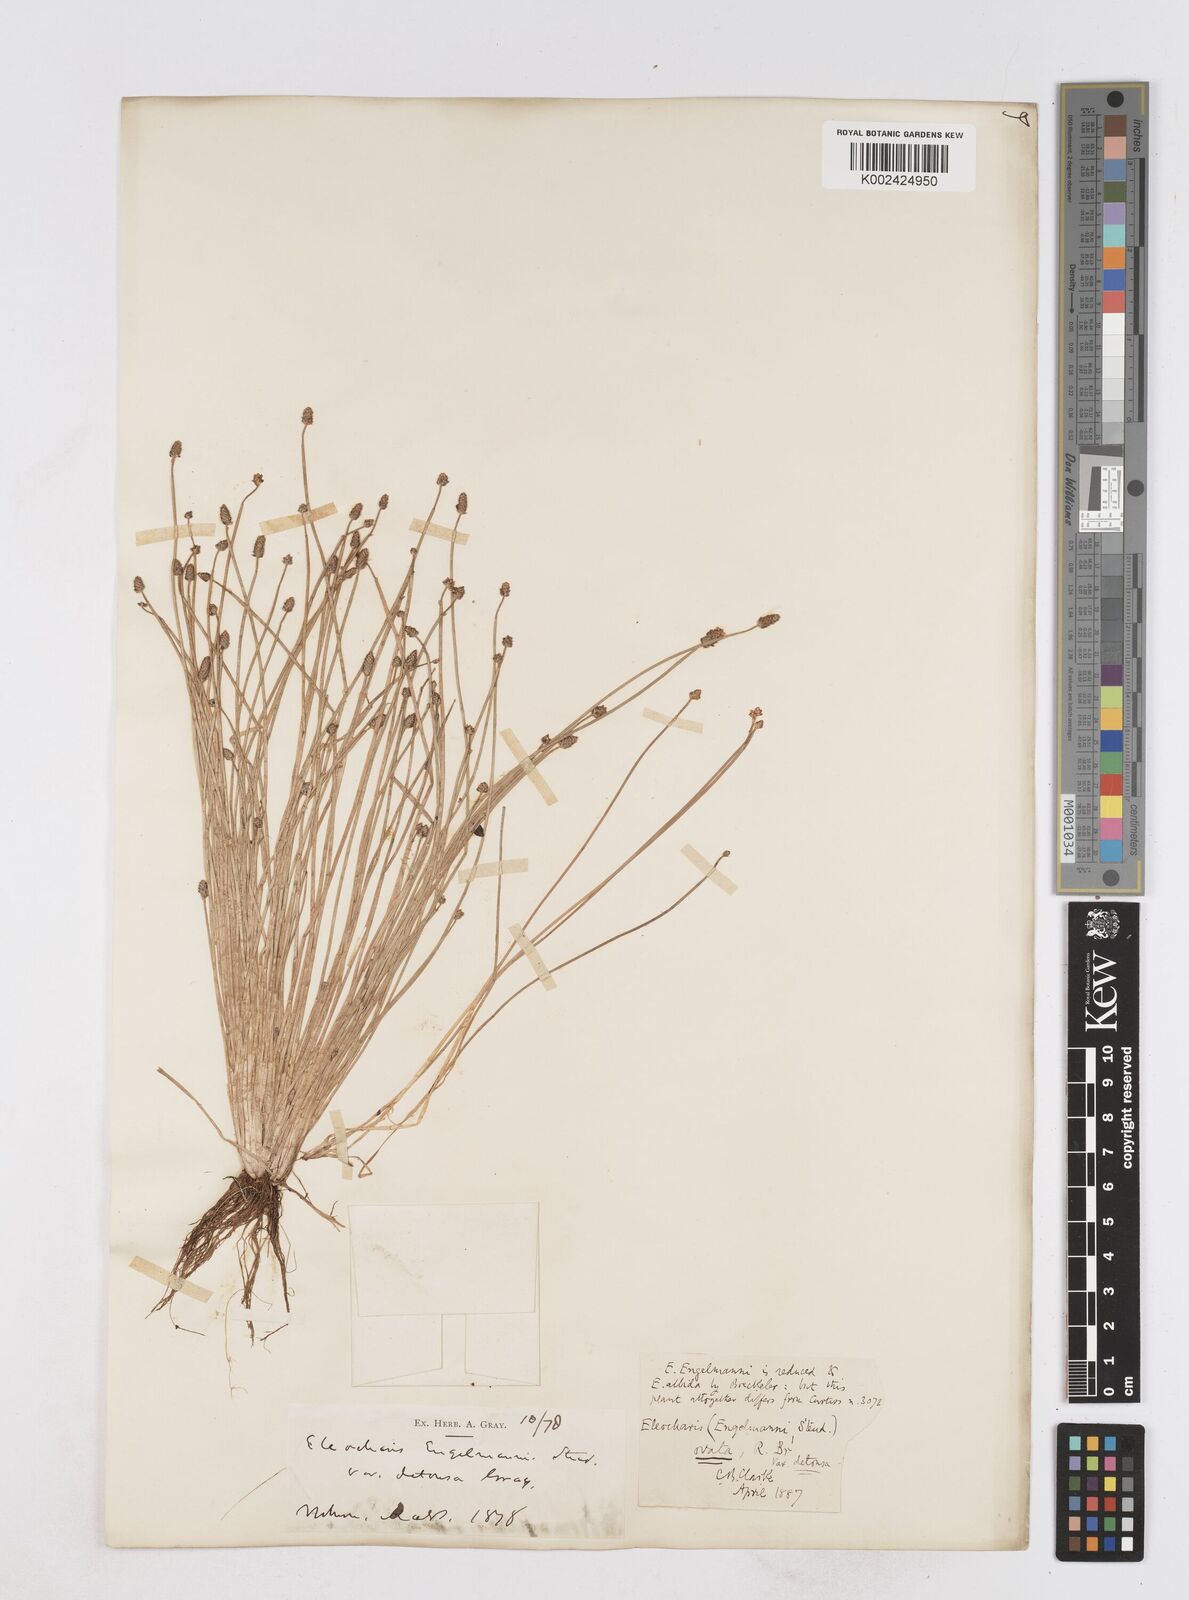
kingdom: Plantae
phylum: Tracheophyta
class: Liliopsida
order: Poales
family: Cyperaceae
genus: Eleocharis
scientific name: Eleocharis engelmannii
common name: Engelmann's spikerush
